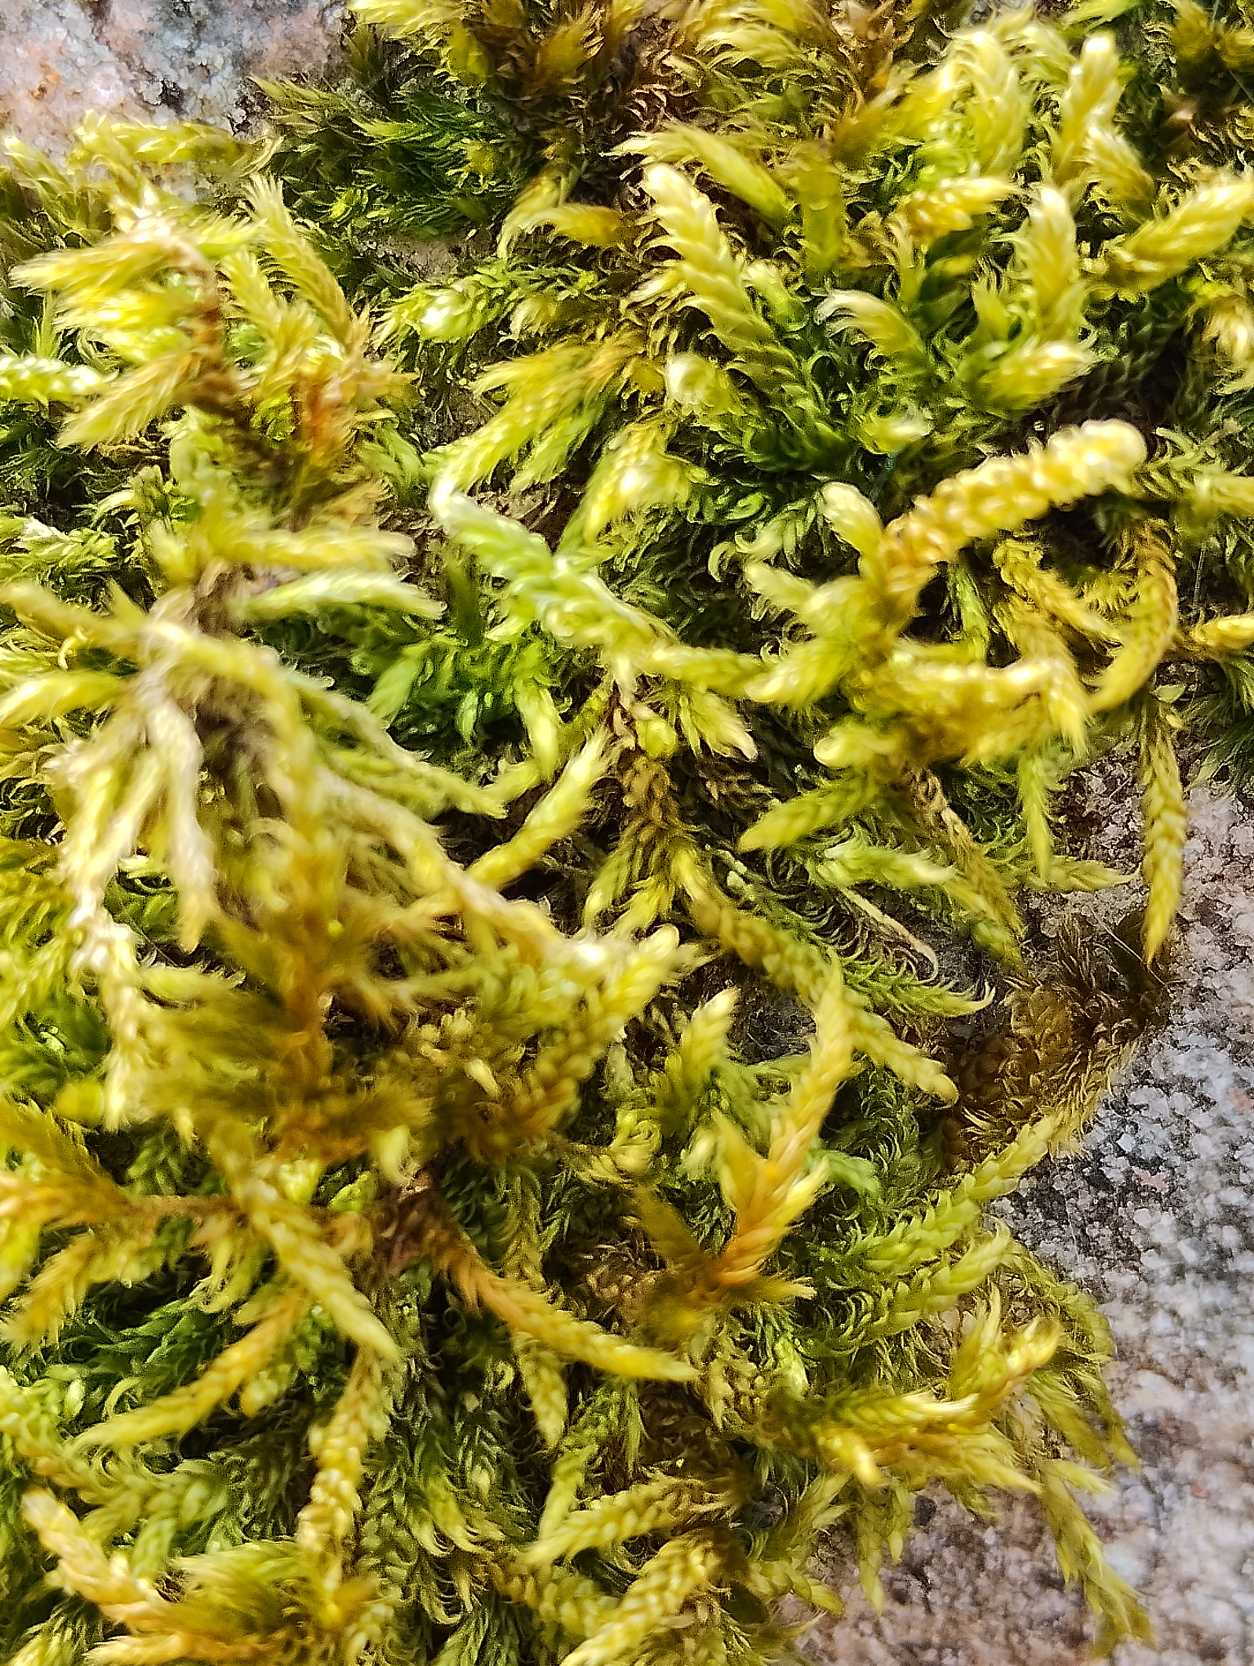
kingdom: Plantae
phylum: Bryophyta
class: Bryopsida
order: Hypnales
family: Hypnaceae
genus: Hypnum
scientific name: Hypnum cupressiforme
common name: Almindelig cypresmos
